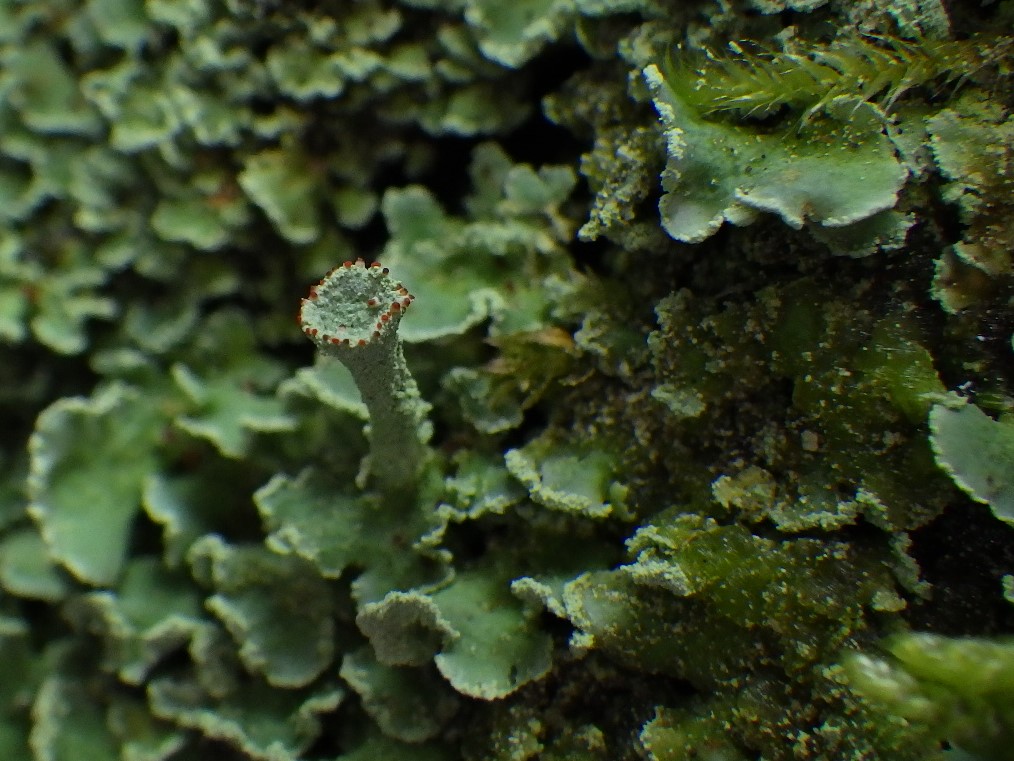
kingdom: Fungi
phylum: Ascomycota
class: Lecanoromycetes
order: Lecanorales
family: Cladoniaceae
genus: Cladonia
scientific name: Cladonia digitata
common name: finger-bægerlav
